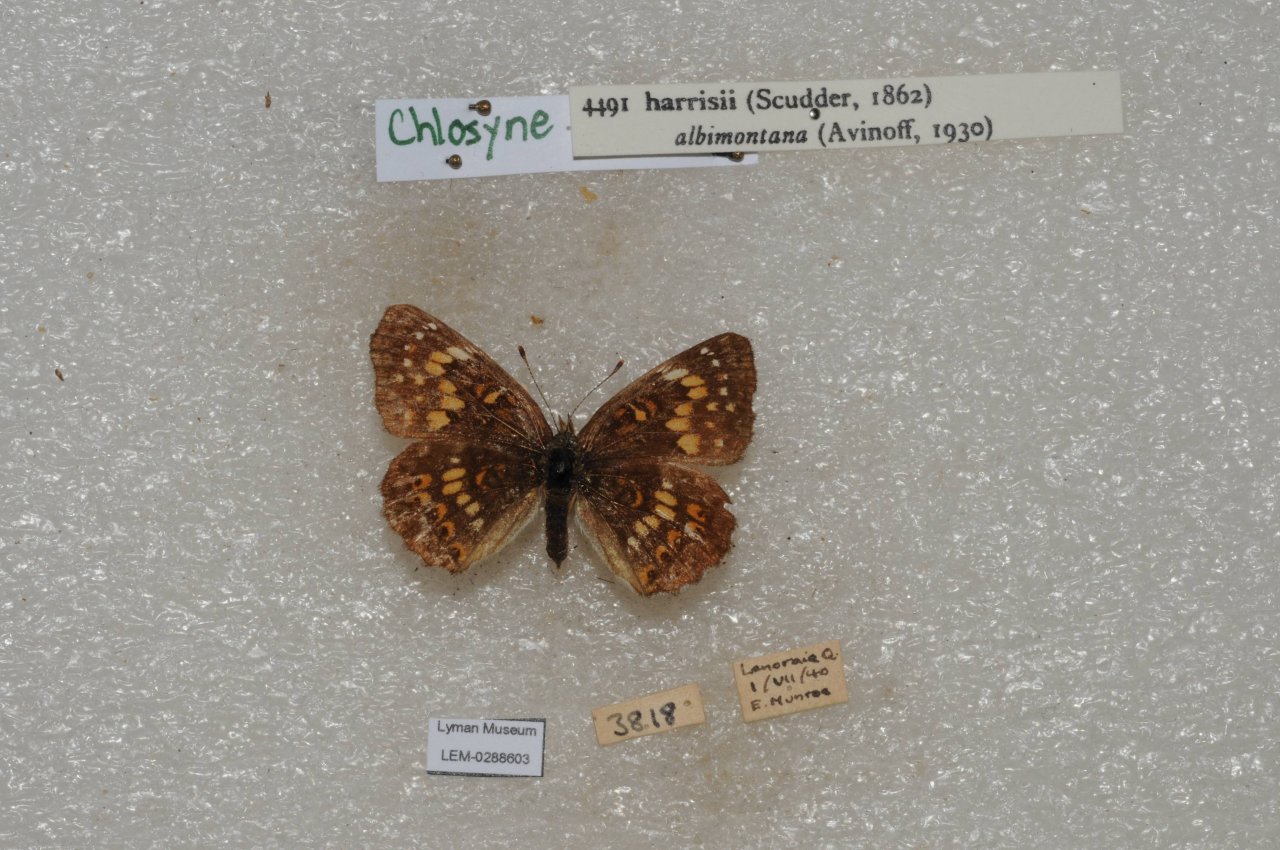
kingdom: Animalia
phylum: Arthropoda
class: Insecta
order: Lepidoptera
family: Nymphalidae
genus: Chlosyne
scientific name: Chlosyne harrisii
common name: Harris's Checkerspot
